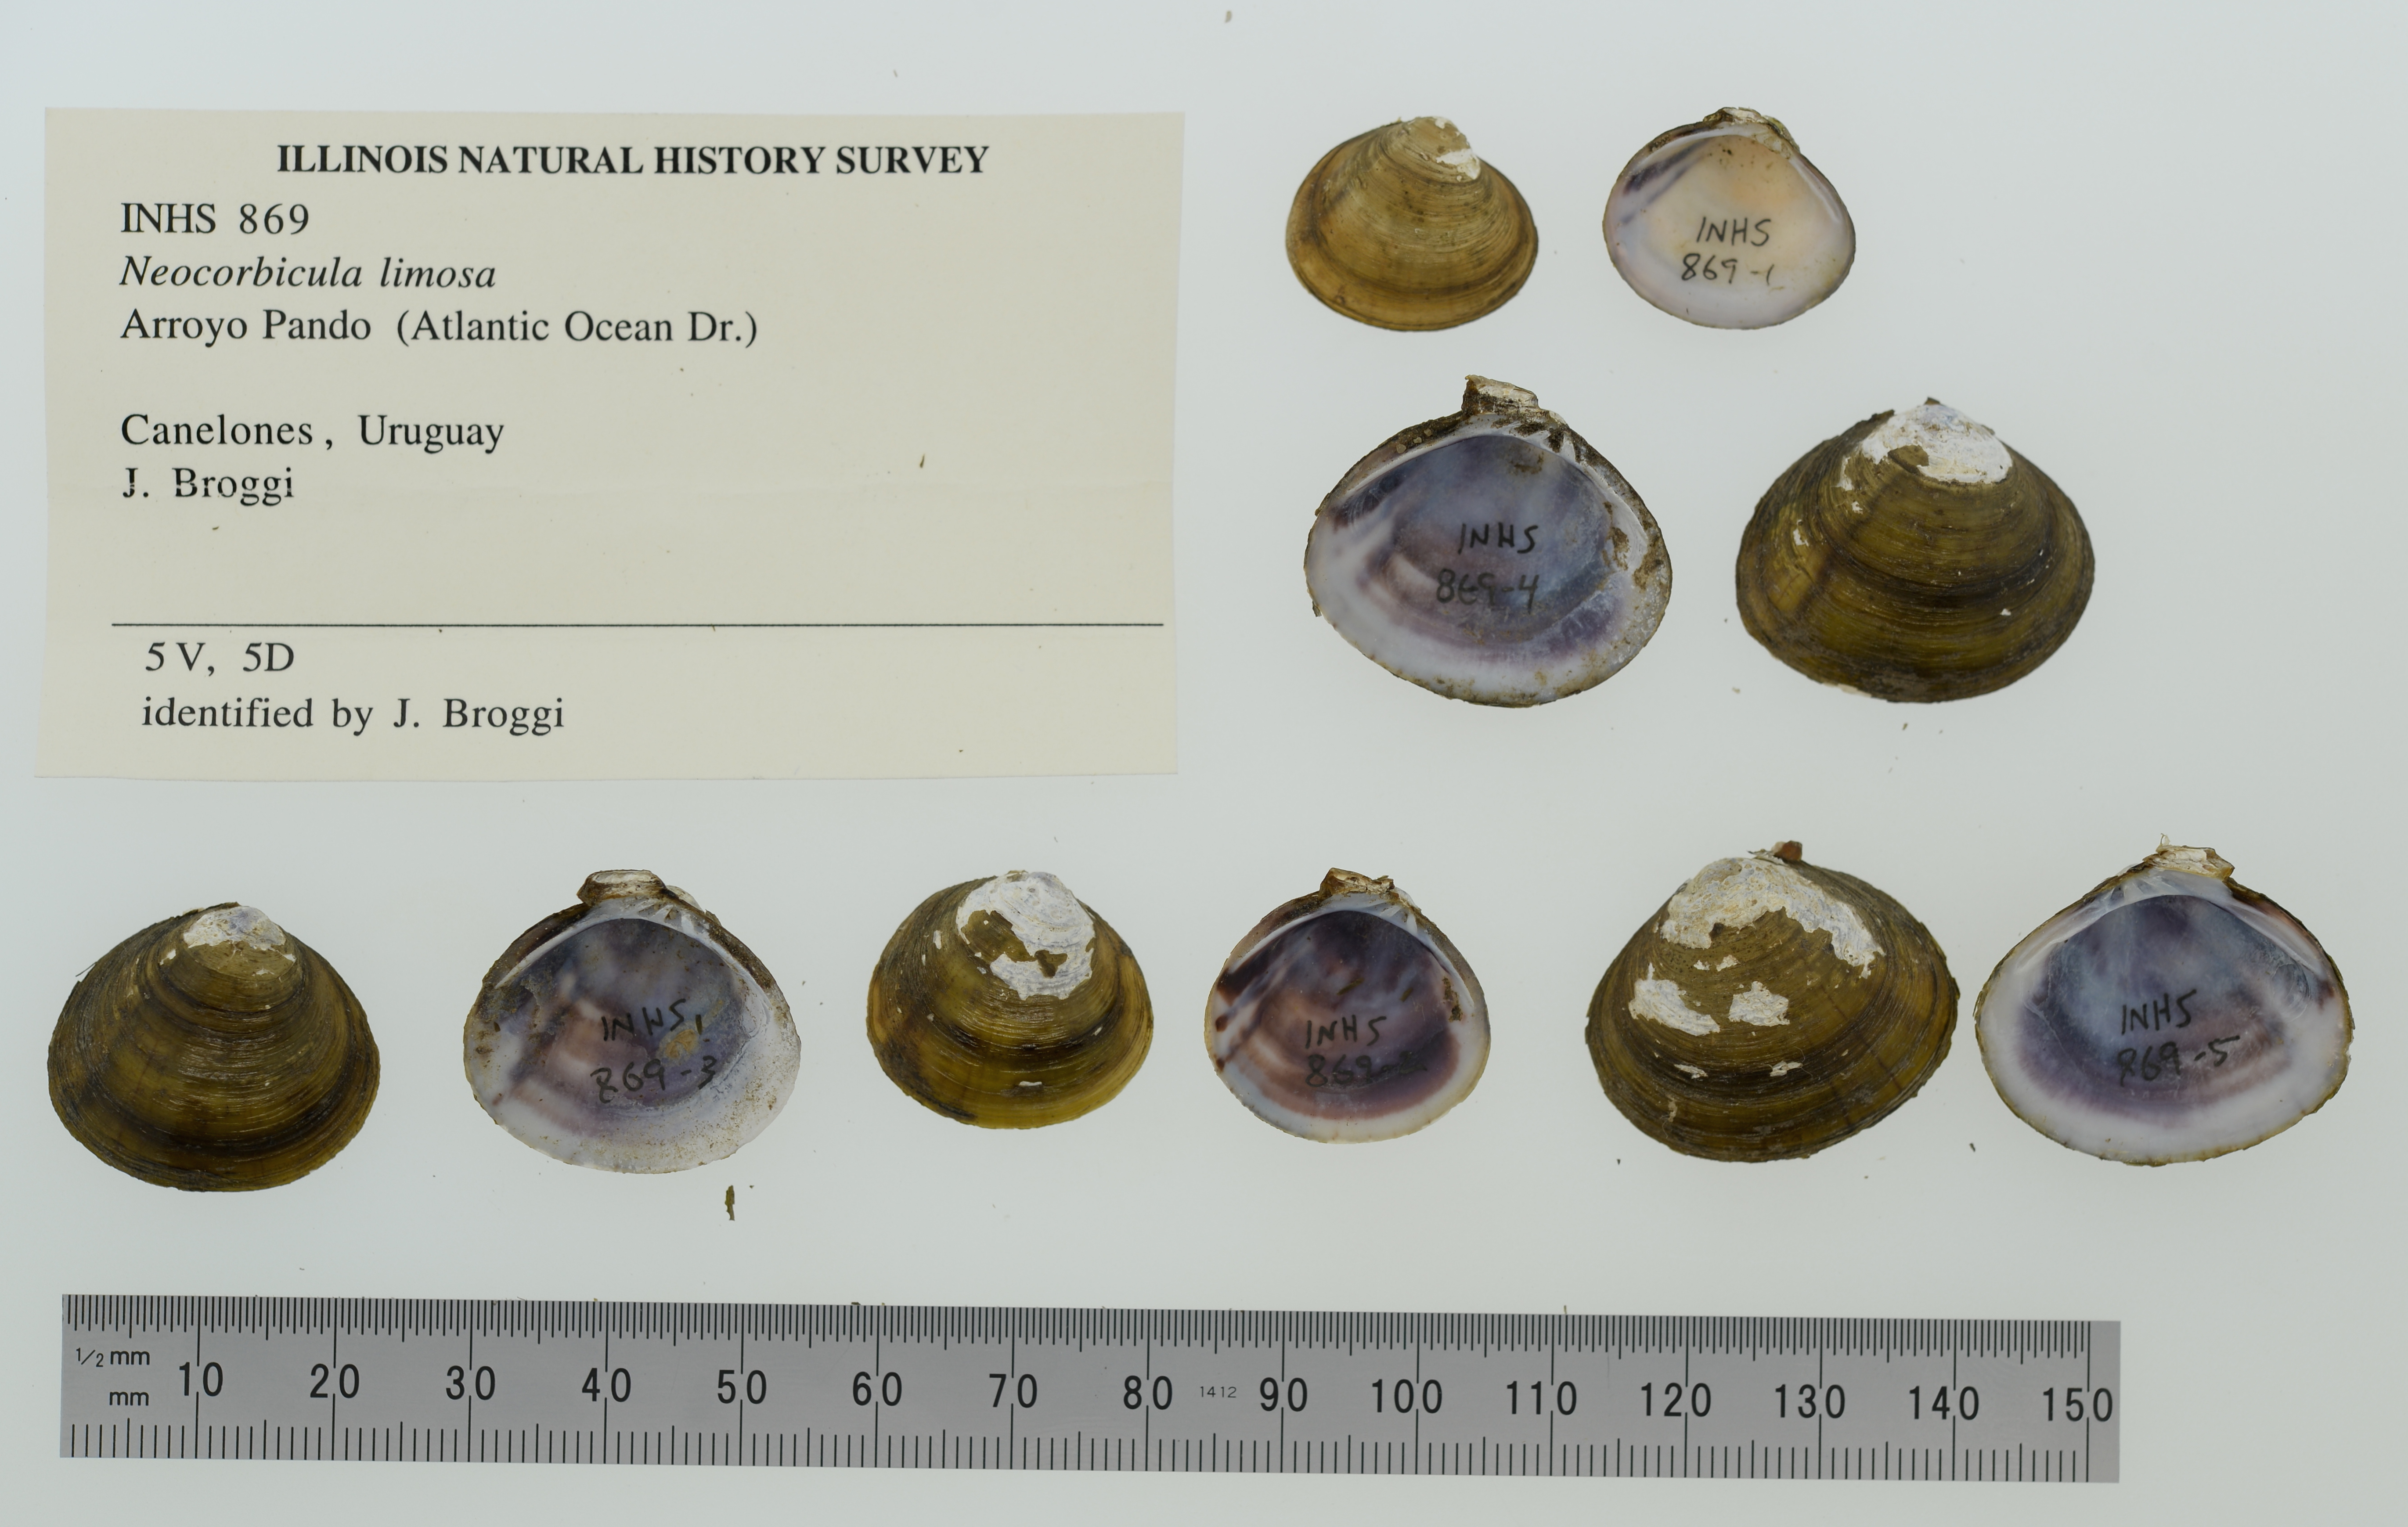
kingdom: Animalia
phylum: Mollusca
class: Bivalvia
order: Venerida
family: Cyrenidae
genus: Cyanocyclas
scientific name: Cyanocyclas limosa
